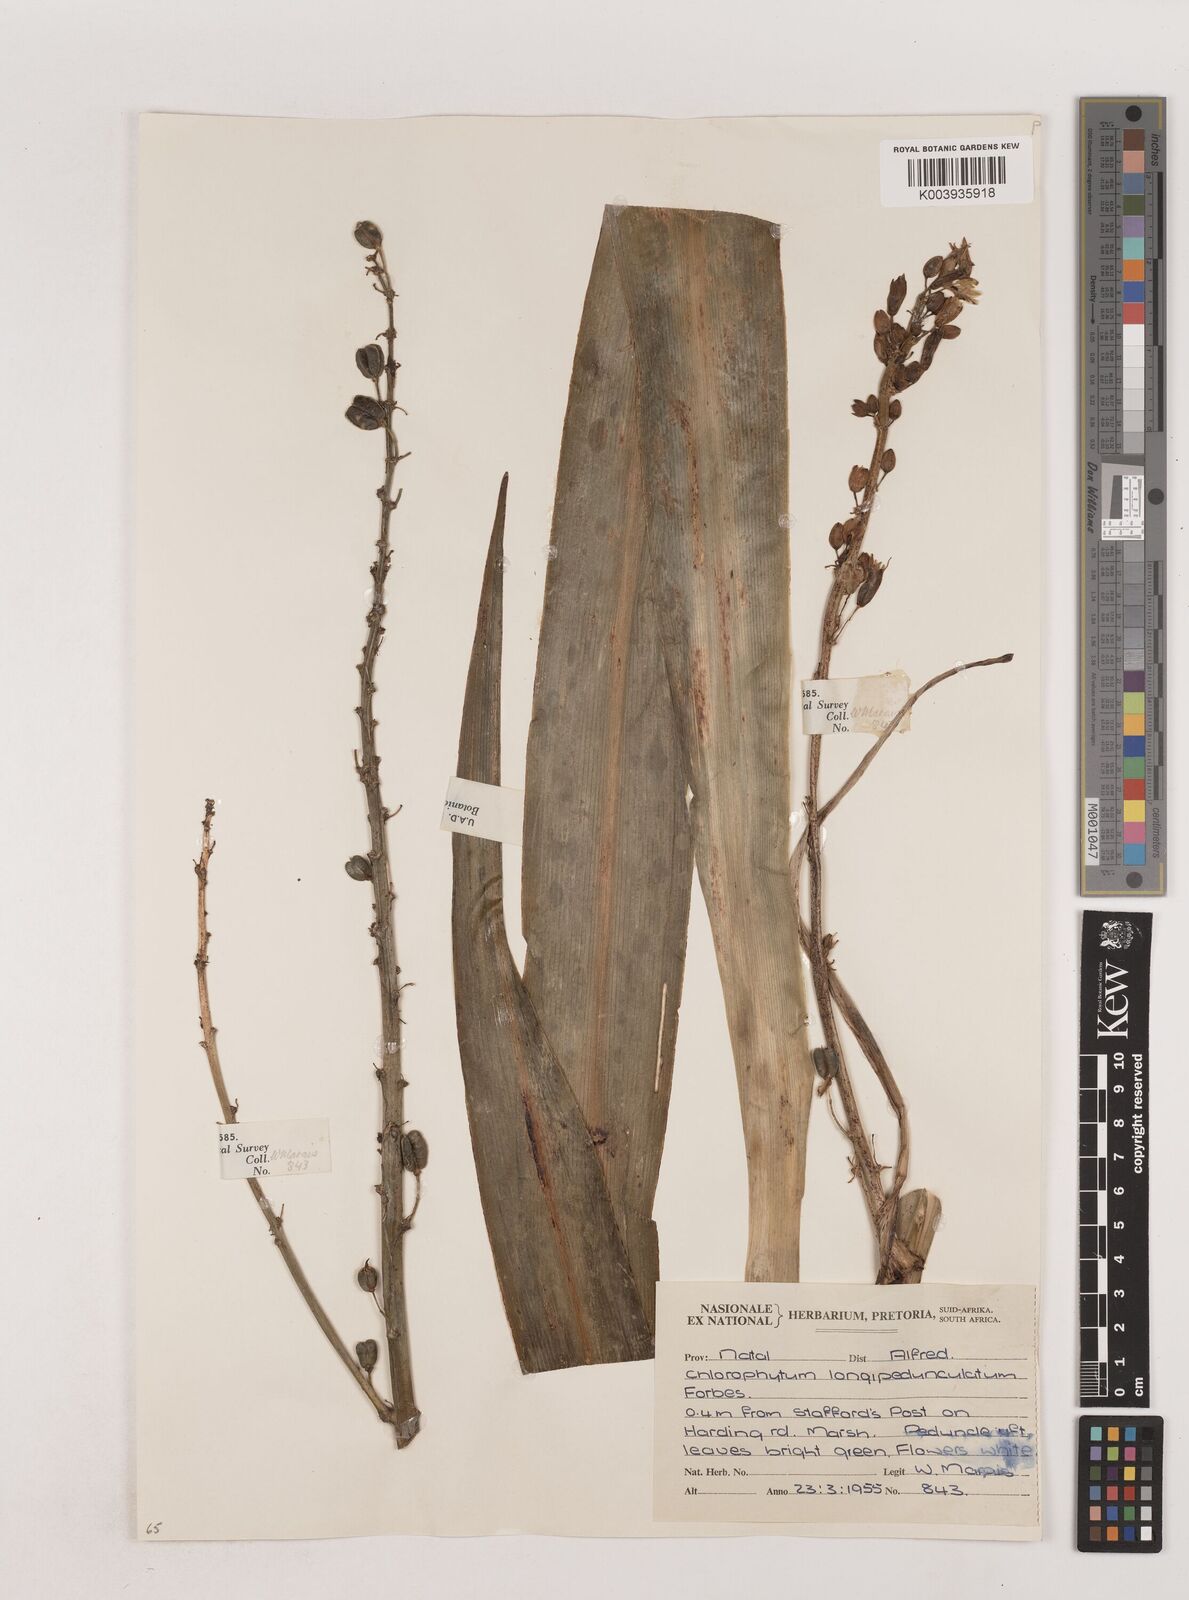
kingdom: Plantae
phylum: Tracheophyta
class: Liliopsida
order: Asparagales
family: Asparagaceae
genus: Chlorophytum
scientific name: Chlorophytum krookianum
